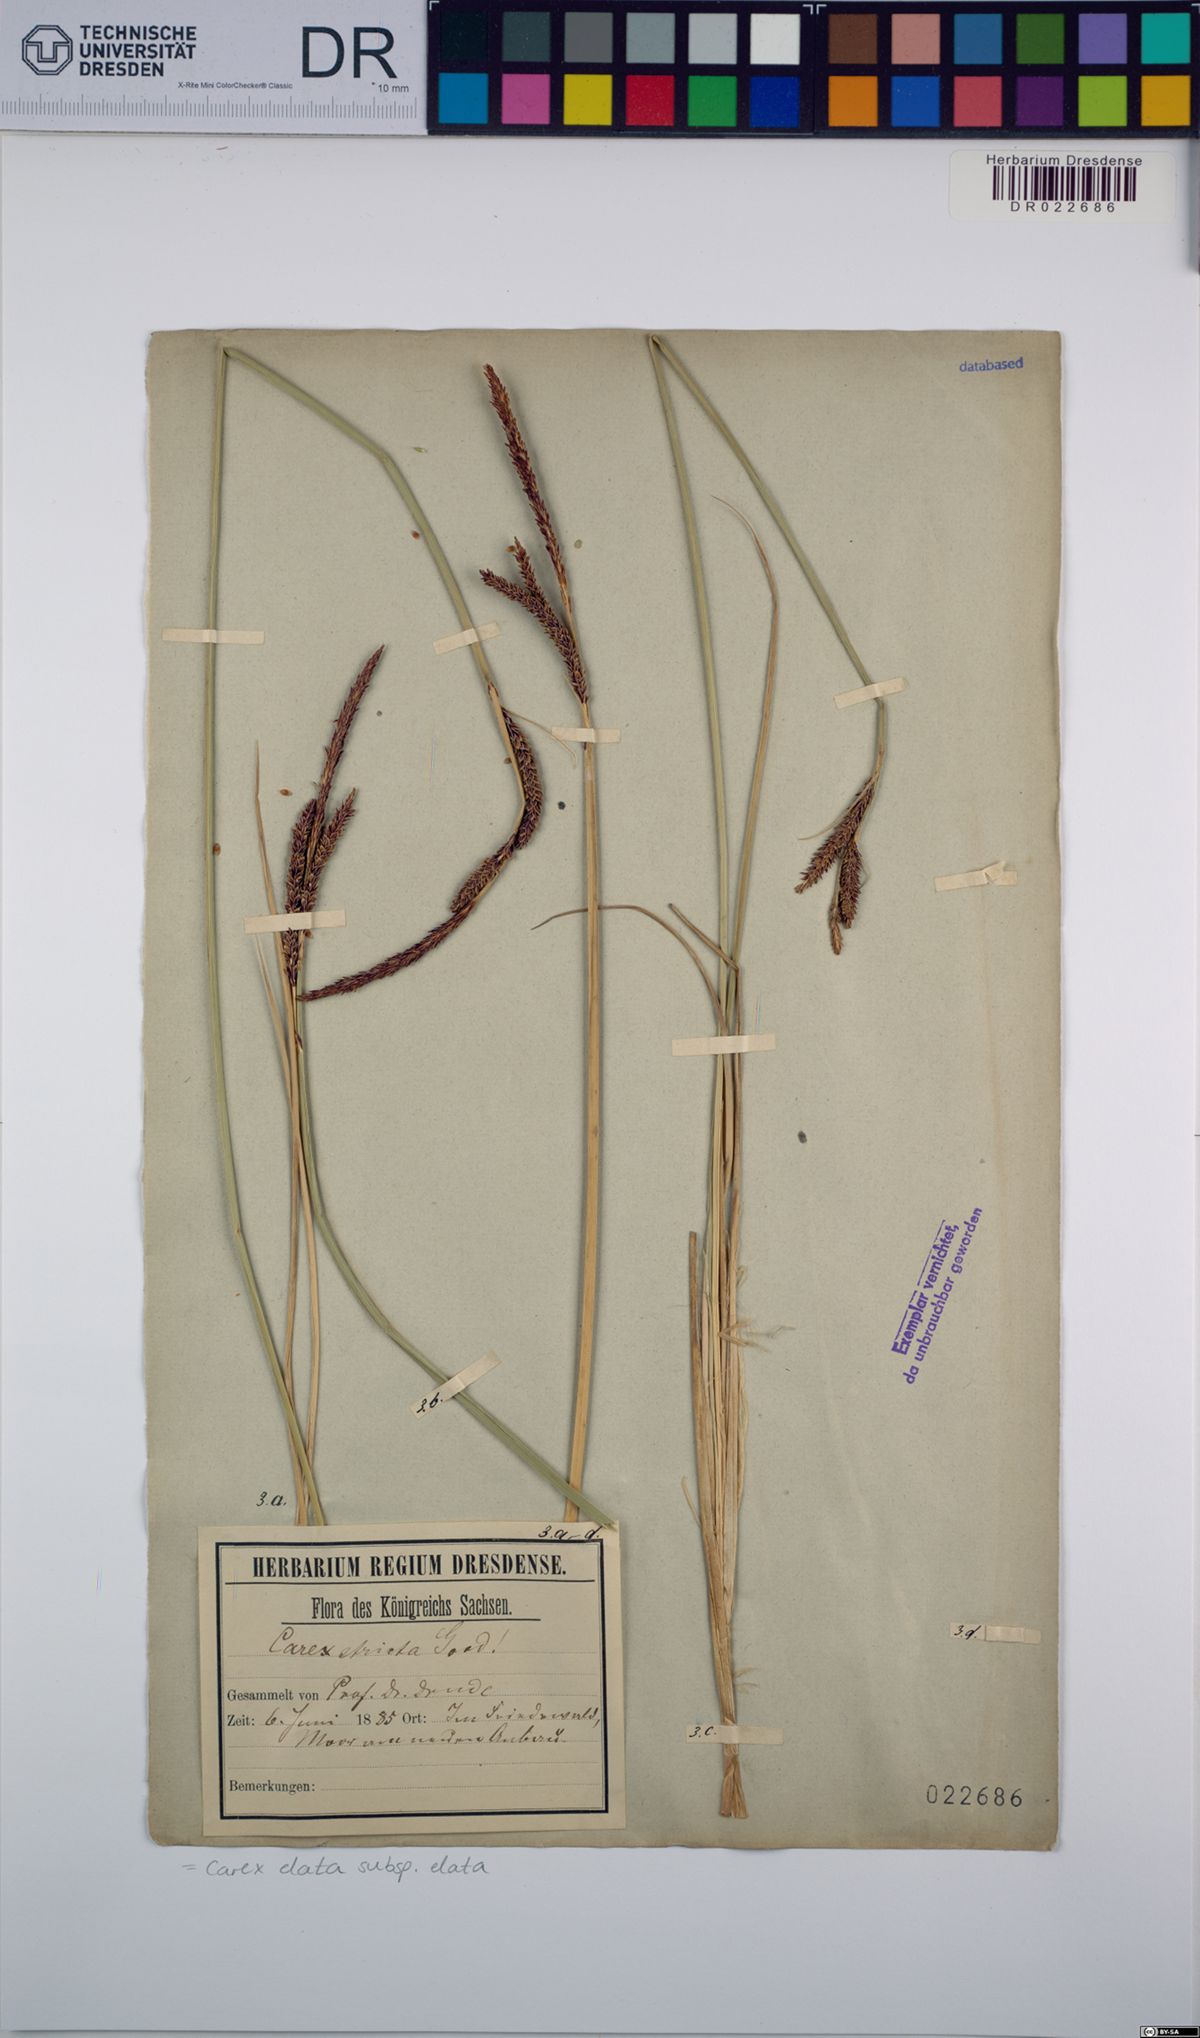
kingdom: Plantae
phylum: Tracheophyta
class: Liliopsida
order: Poales
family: Cyperaceae
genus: Carex
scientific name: Carex elata
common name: Tufted sedge
